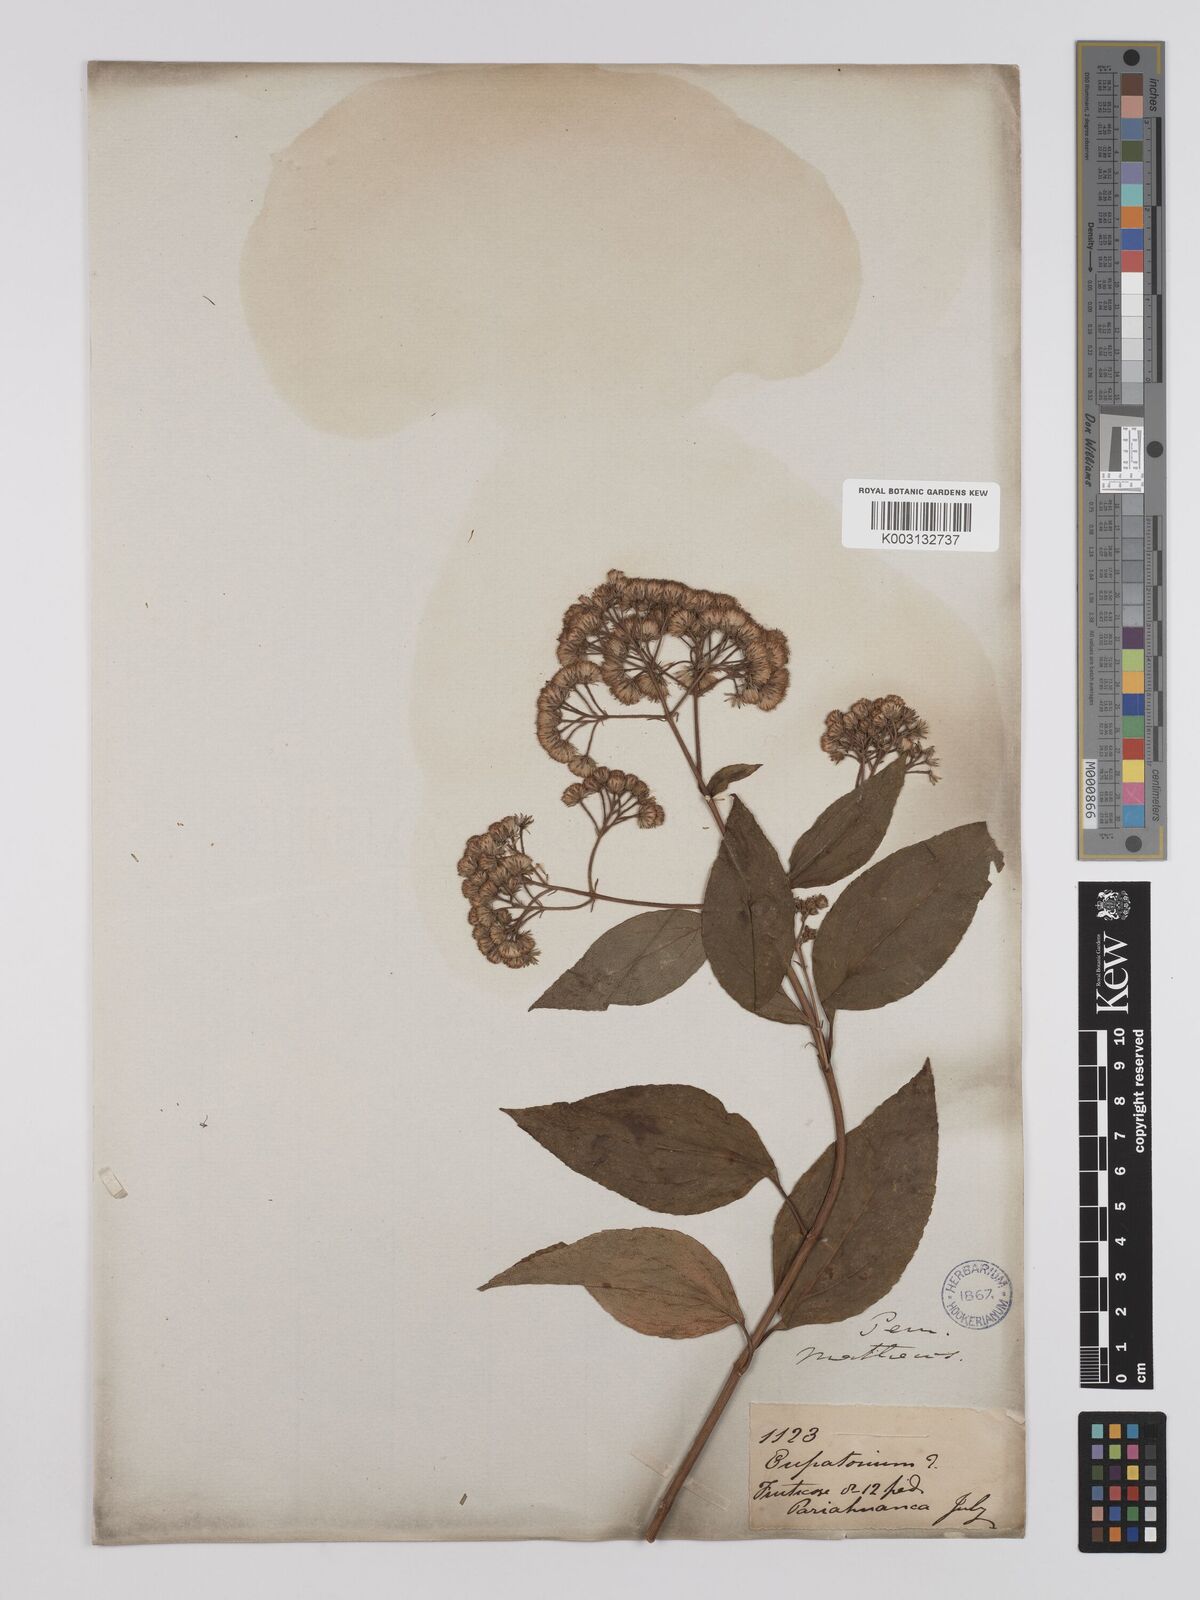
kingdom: Plantae
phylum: Tracheophyta
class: Magnoliopsida
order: Asterales
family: Asteraceae
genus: Ageratina
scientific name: Ageratina bustamenta
